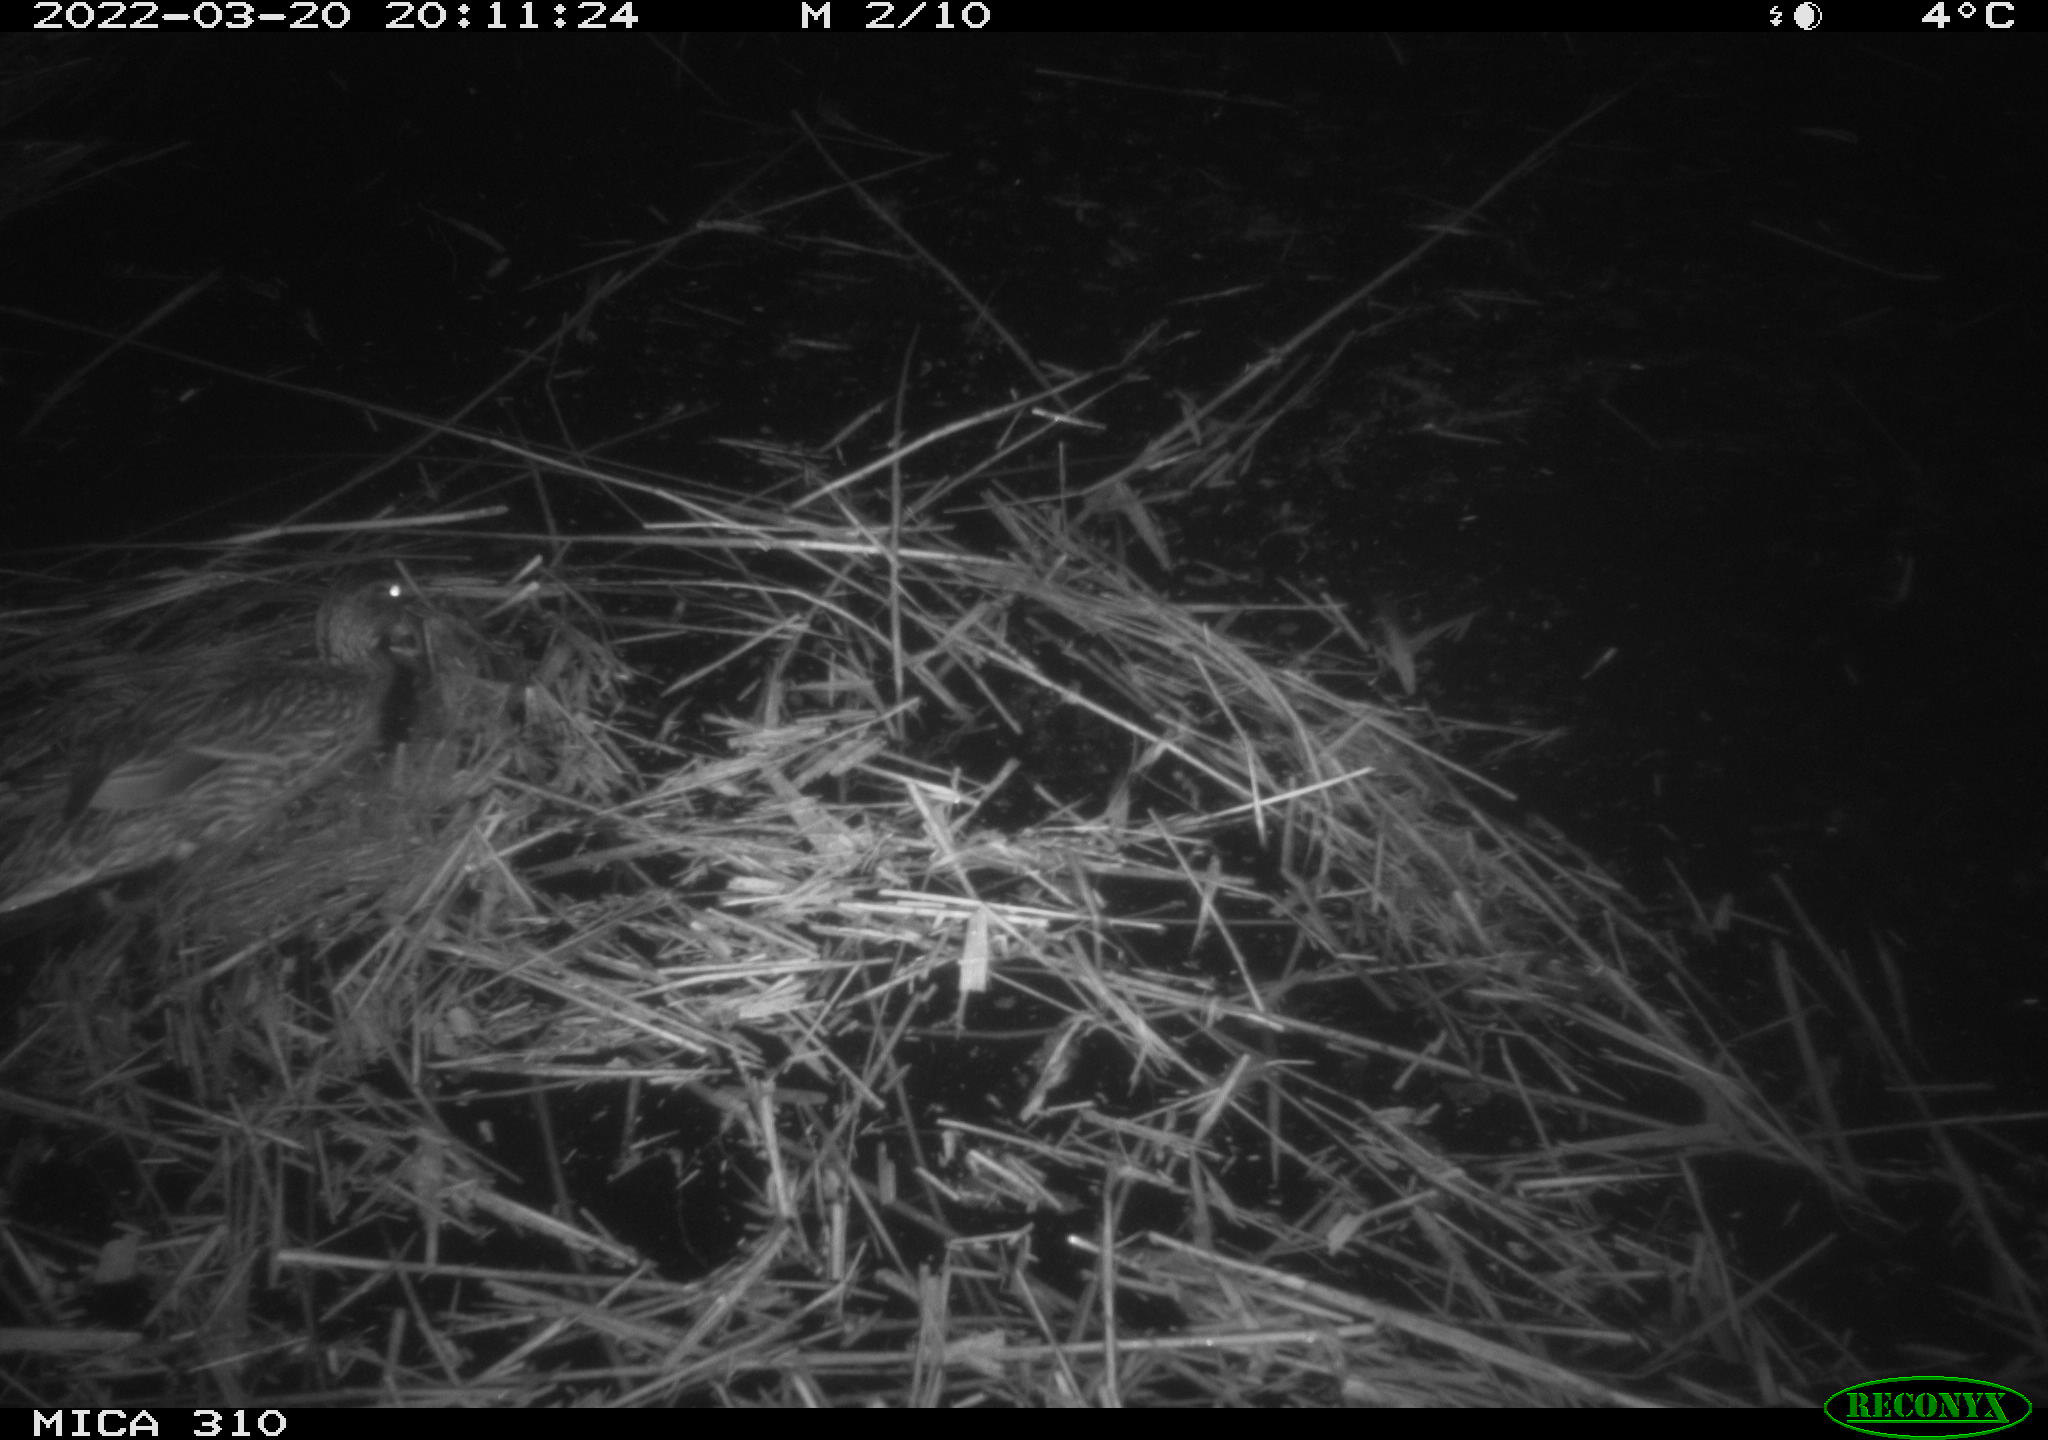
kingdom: Animalia
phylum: Chordata
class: Aves
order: Anseriformes
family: Anatidae
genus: Anas
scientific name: Anas platyrhynchos
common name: Mallard
